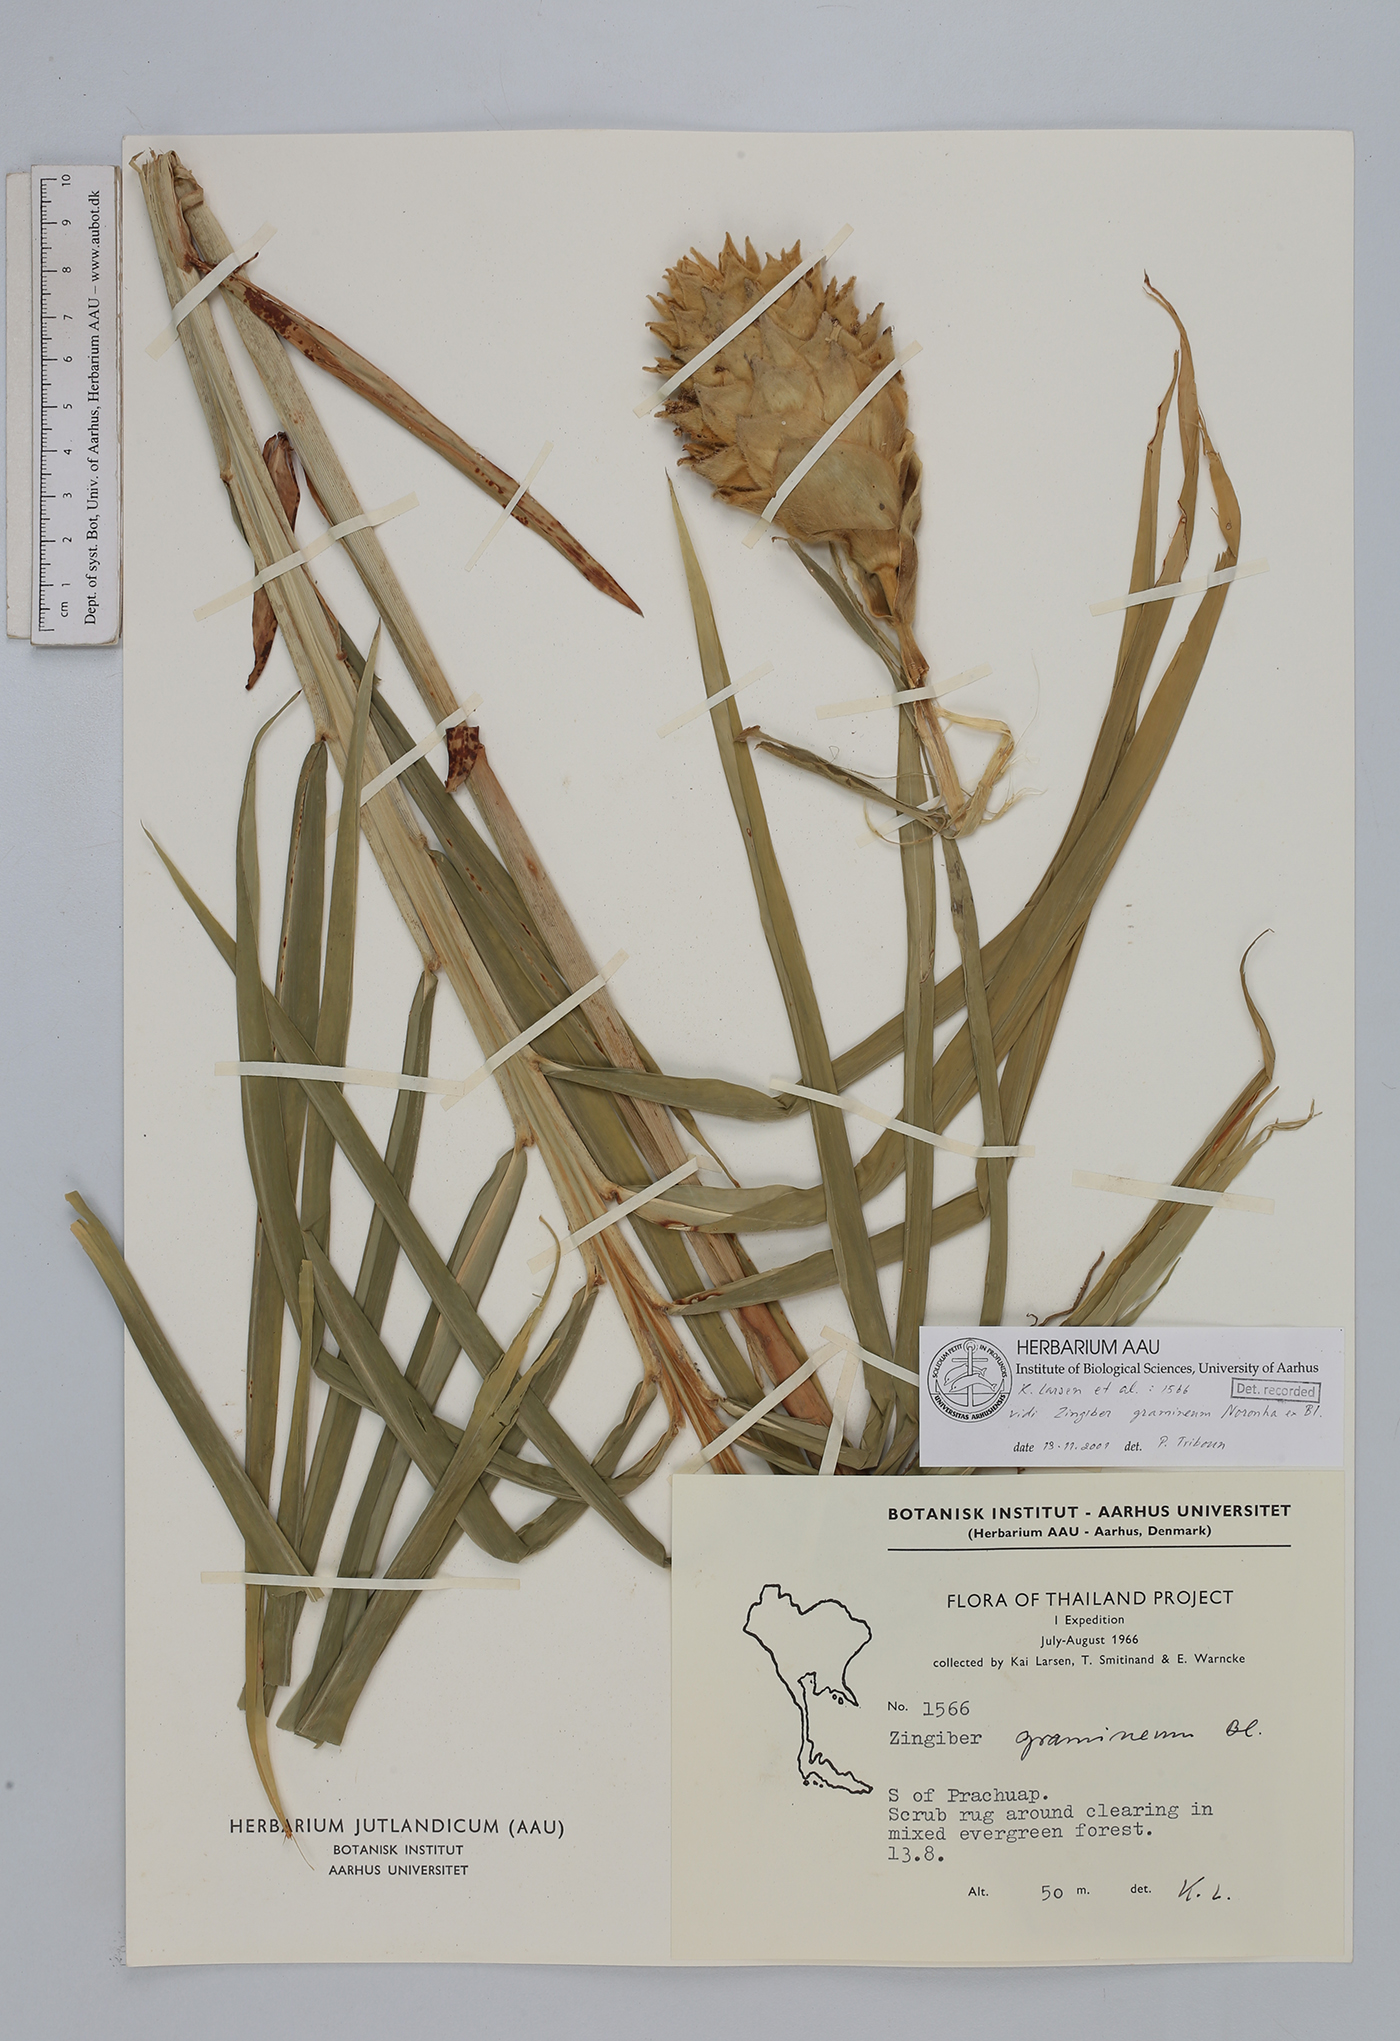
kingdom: Plantae
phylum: Tracheophyta
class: Liliopsida
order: Zingiberales
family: Zingiberaceae
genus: Zingiber
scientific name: Zingiber gramineum
